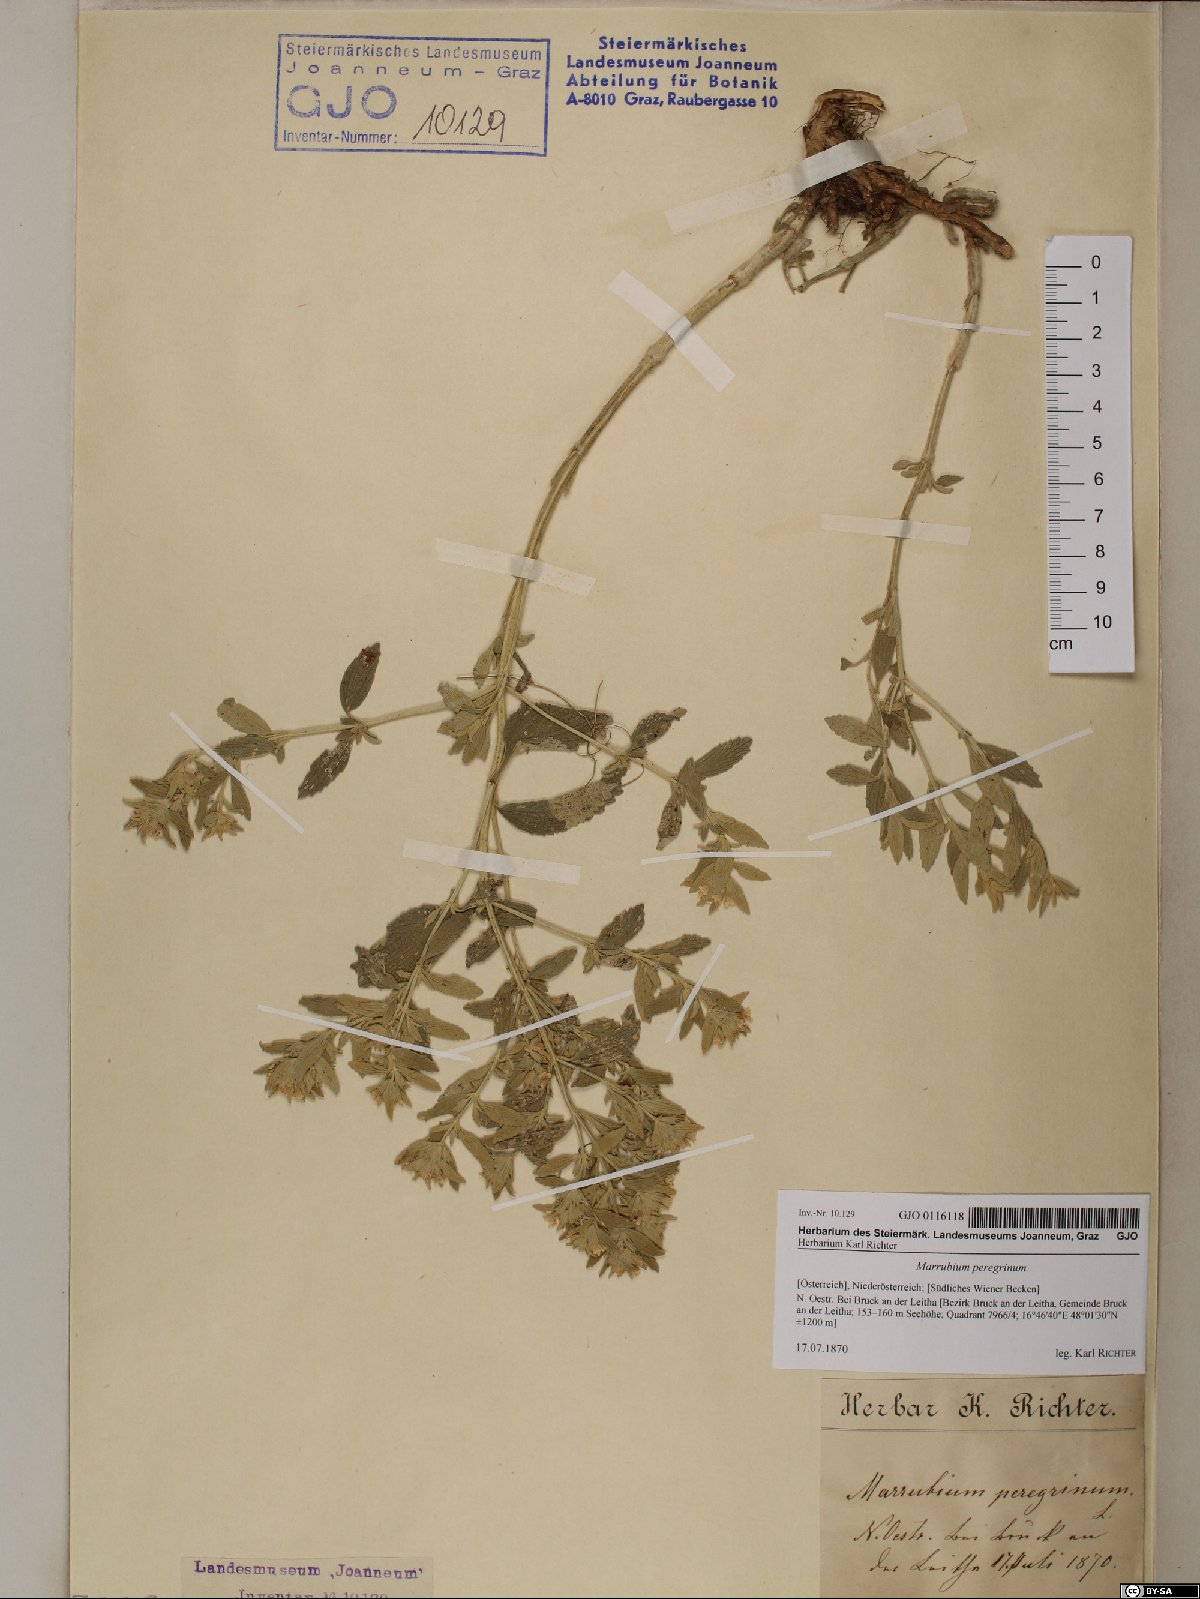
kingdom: Plantae
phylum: Tracheophyta
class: Magnoliopsida
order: Lamiales
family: Lamiaceae
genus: Marrubium
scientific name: Marrubium peregrinum
